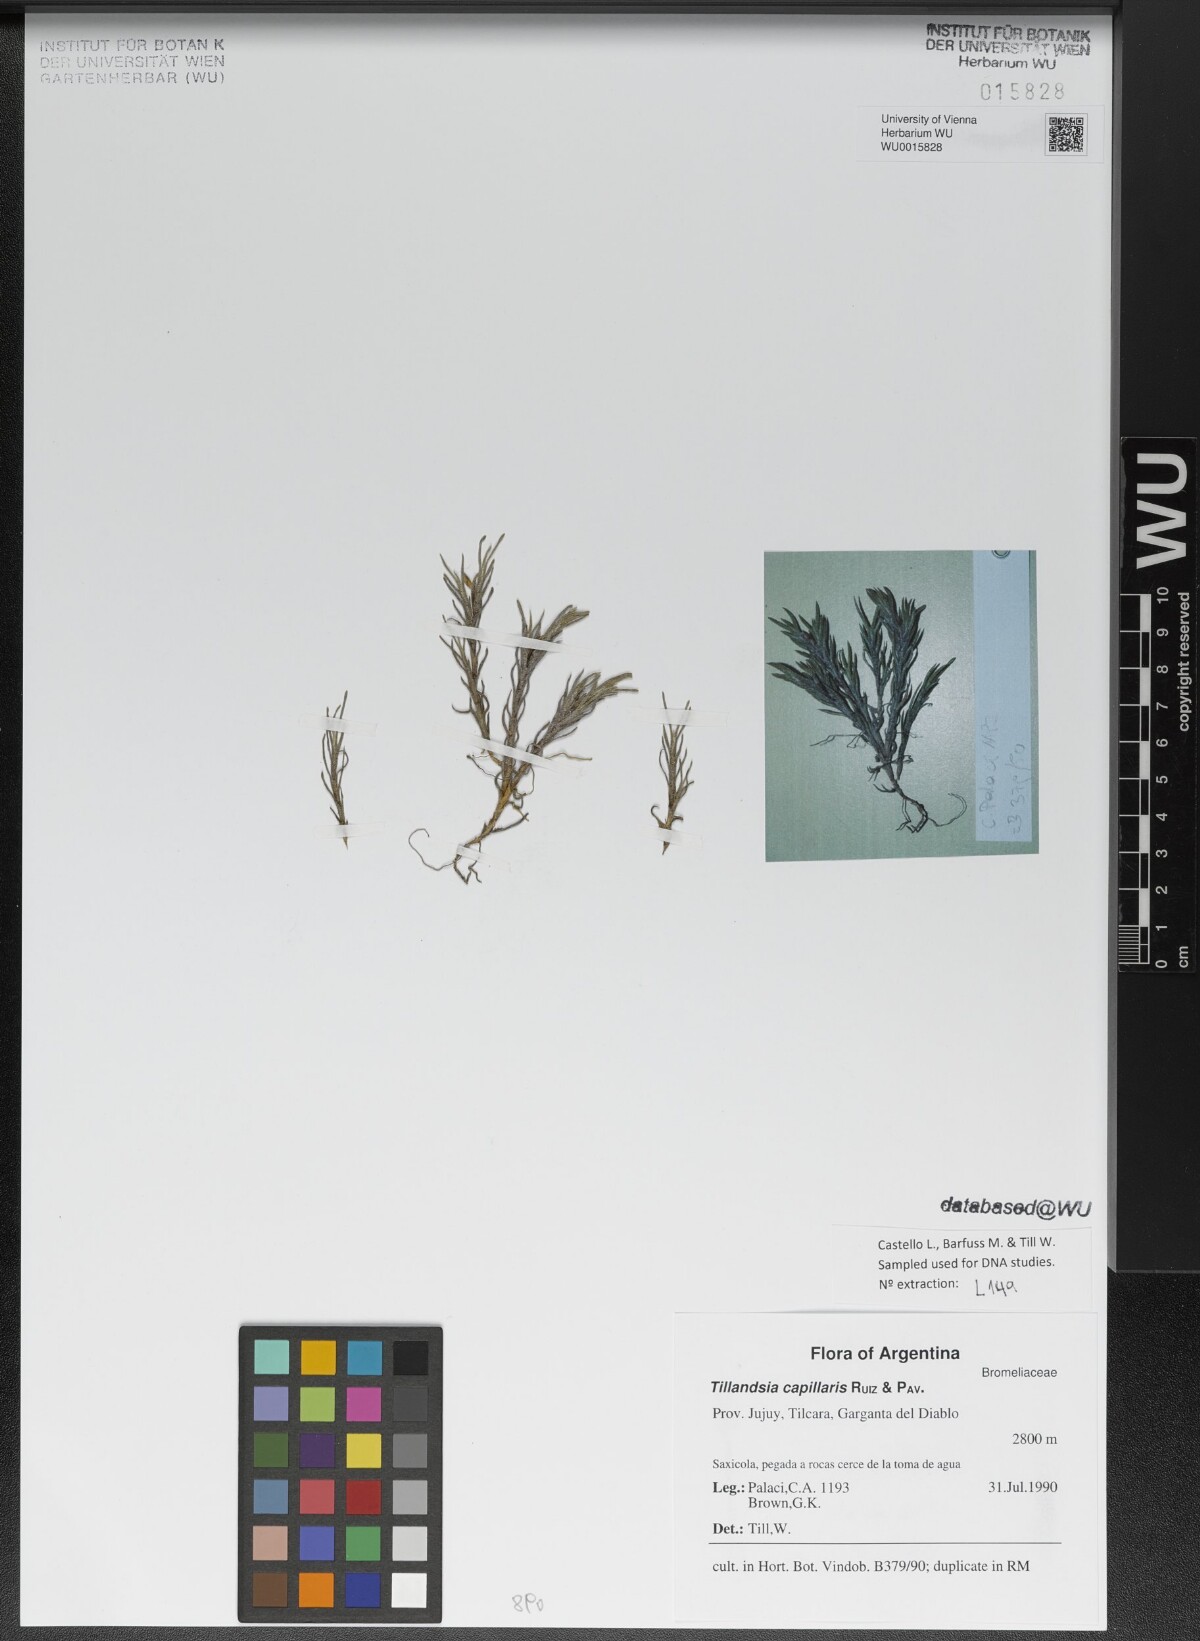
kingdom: Plantae
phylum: Tracheophyta
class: Liliopsida
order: Poales
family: Bromeliaceae
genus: Tillandsia
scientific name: Tillandsia capillaris
